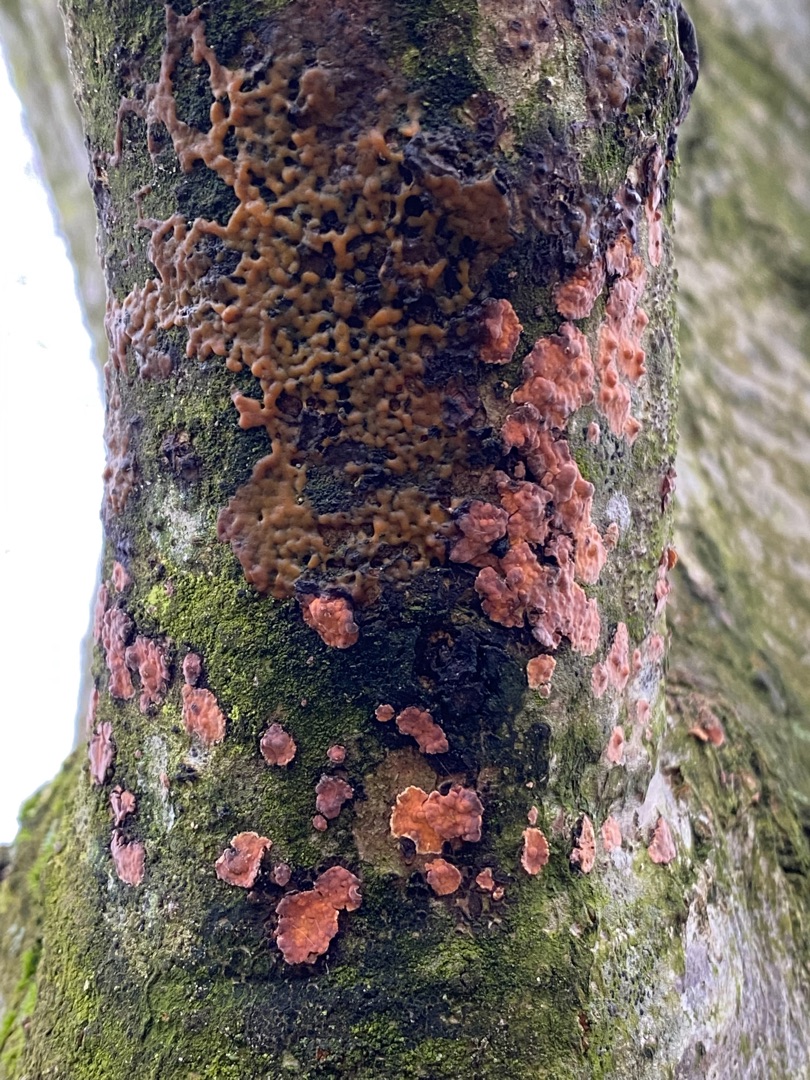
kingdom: Fungi
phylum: Basidiomycota
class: Agaricomycetes
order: Russulales
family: Peniophoraceae
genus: Peniophora
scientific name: Peniophora incarnata
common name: Laksefarvet voksskind
